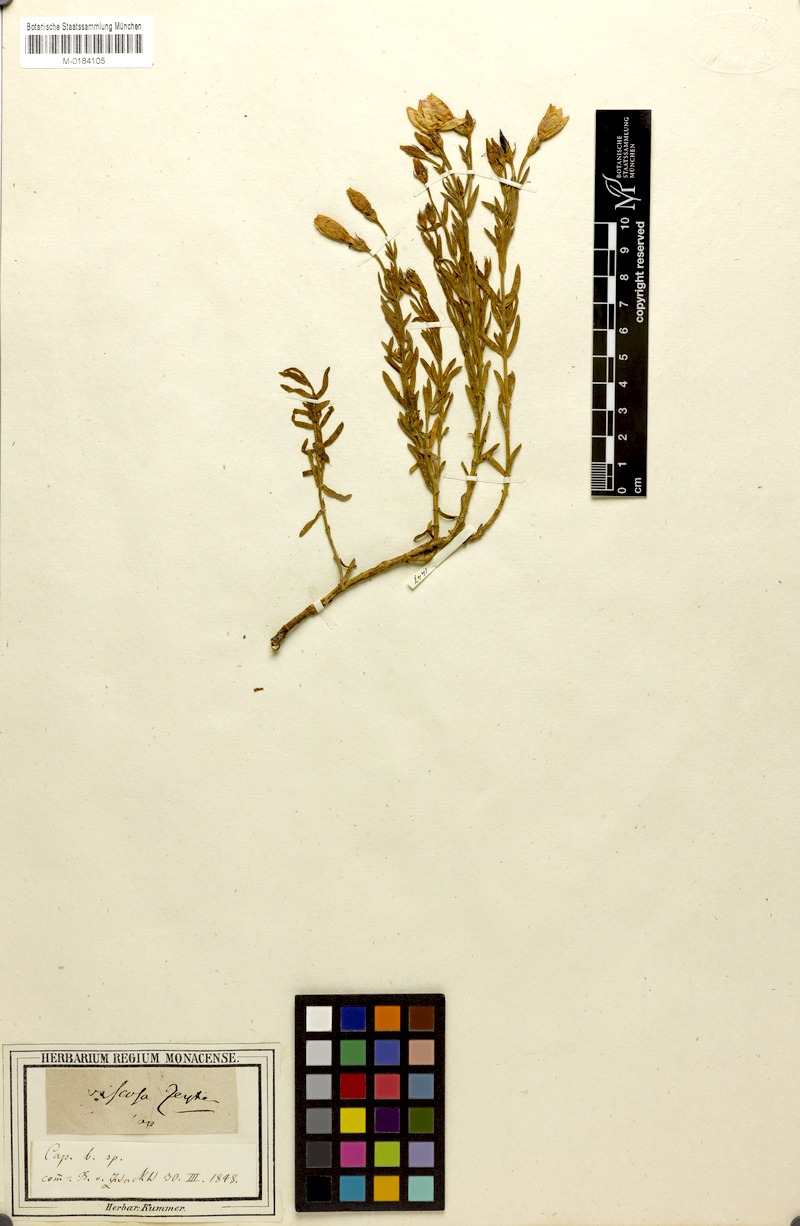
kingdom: Plantae
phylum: Tracheophyta
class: Magnoliopsida
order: Gentianales
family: Gentianaceae
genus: Chironia
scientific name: Chironia tetragona
